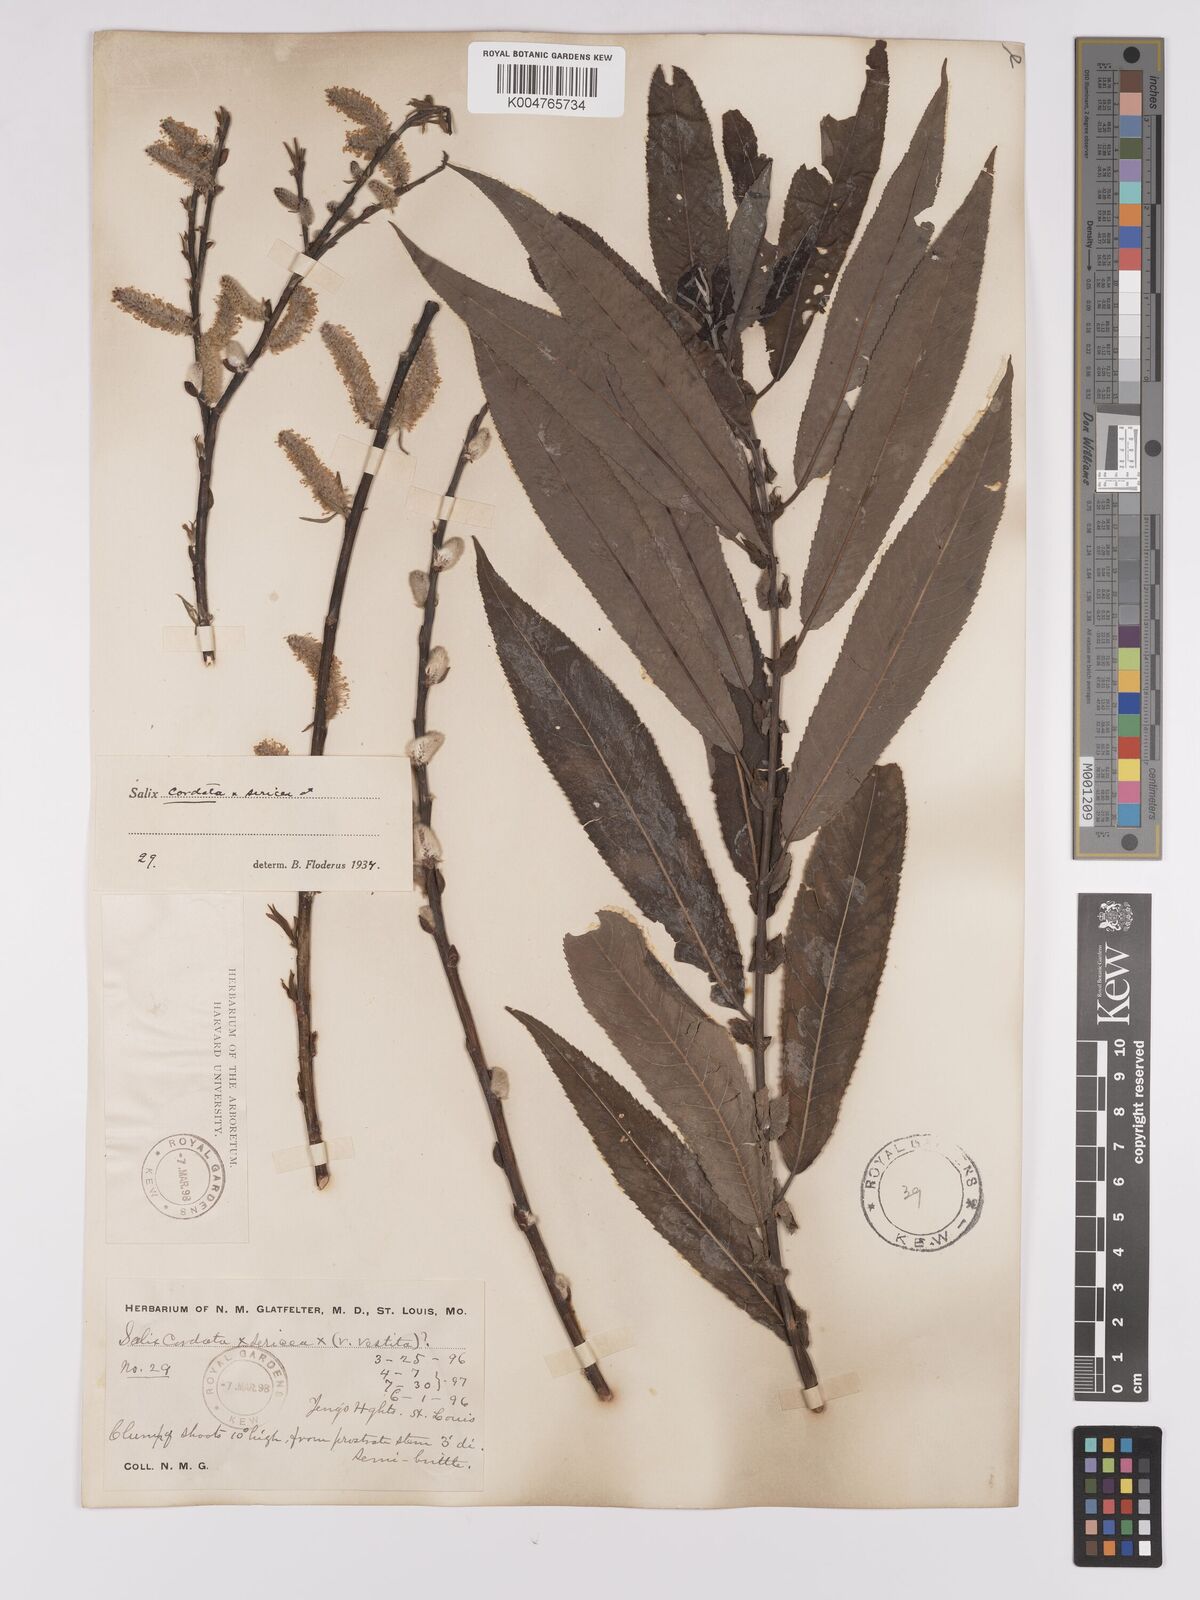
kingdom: Plantae
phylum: Tracheophyta
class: Magnoliopsida
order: Malpighiales
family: Salicaceae
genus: Salix
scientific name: Salix
